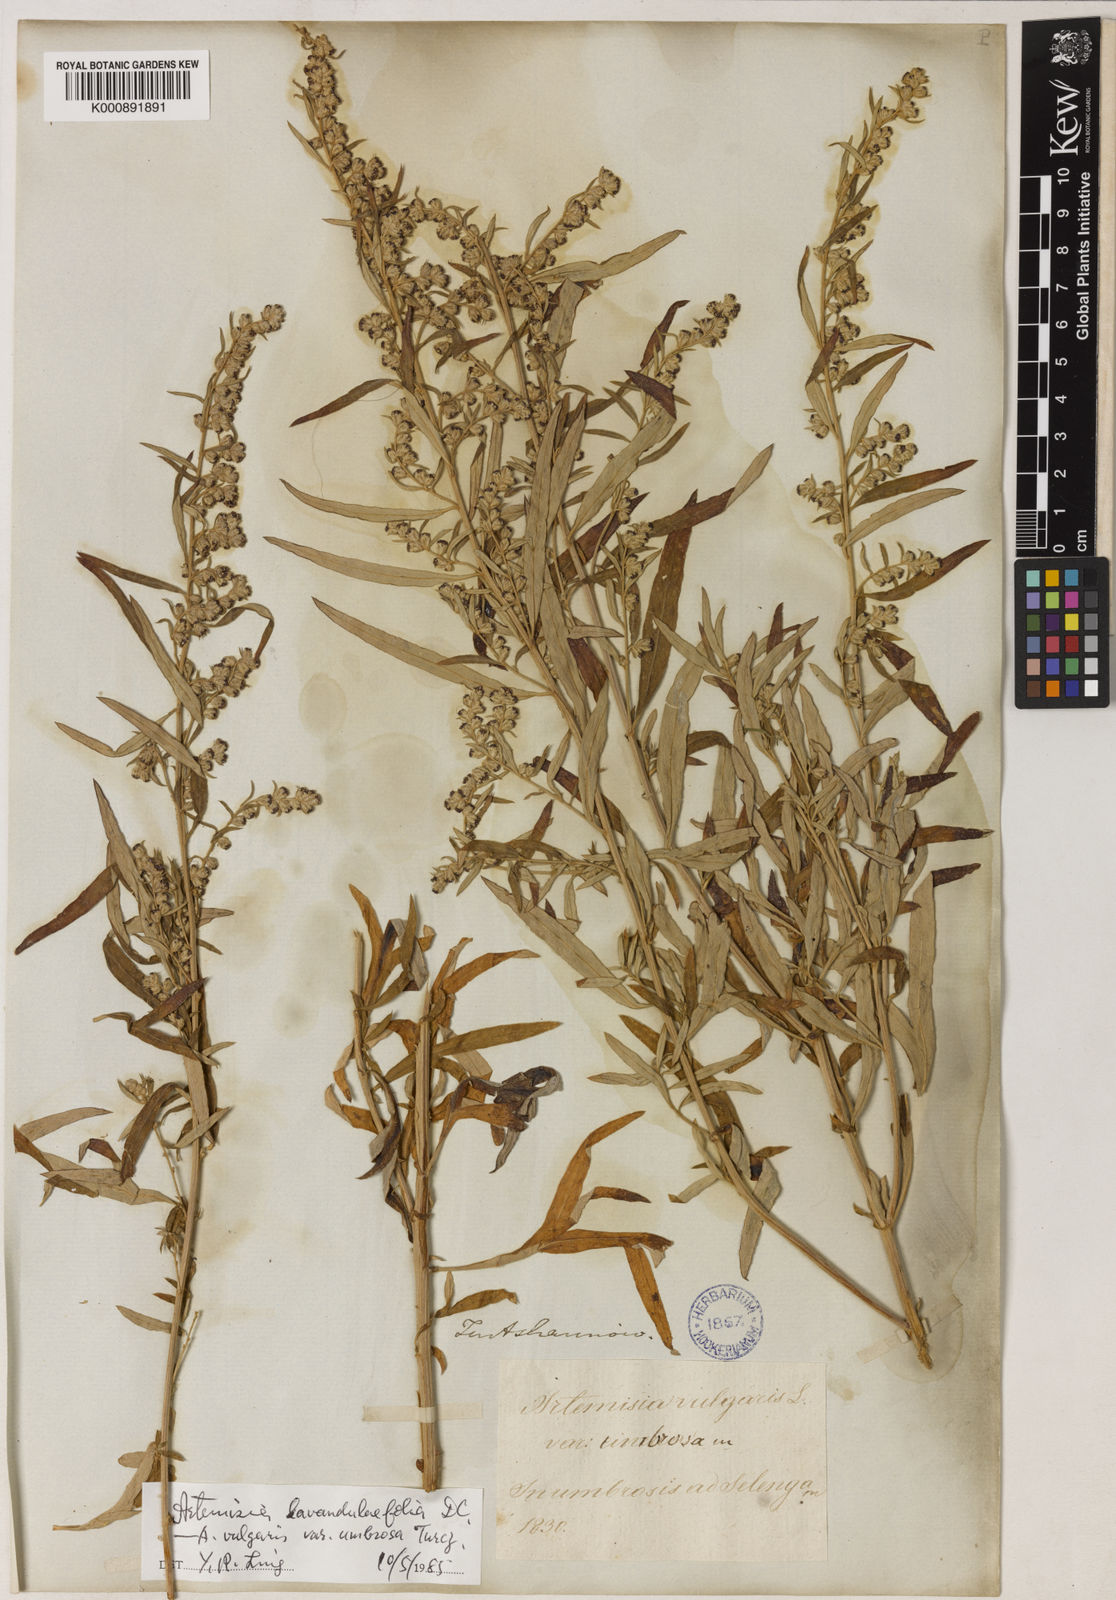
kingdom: Plantae
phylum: Tracheophyta
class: Magnoliopsida
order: Asterales
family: Asteraceae
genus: Artemisia
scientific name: Artemisia umbrosa
